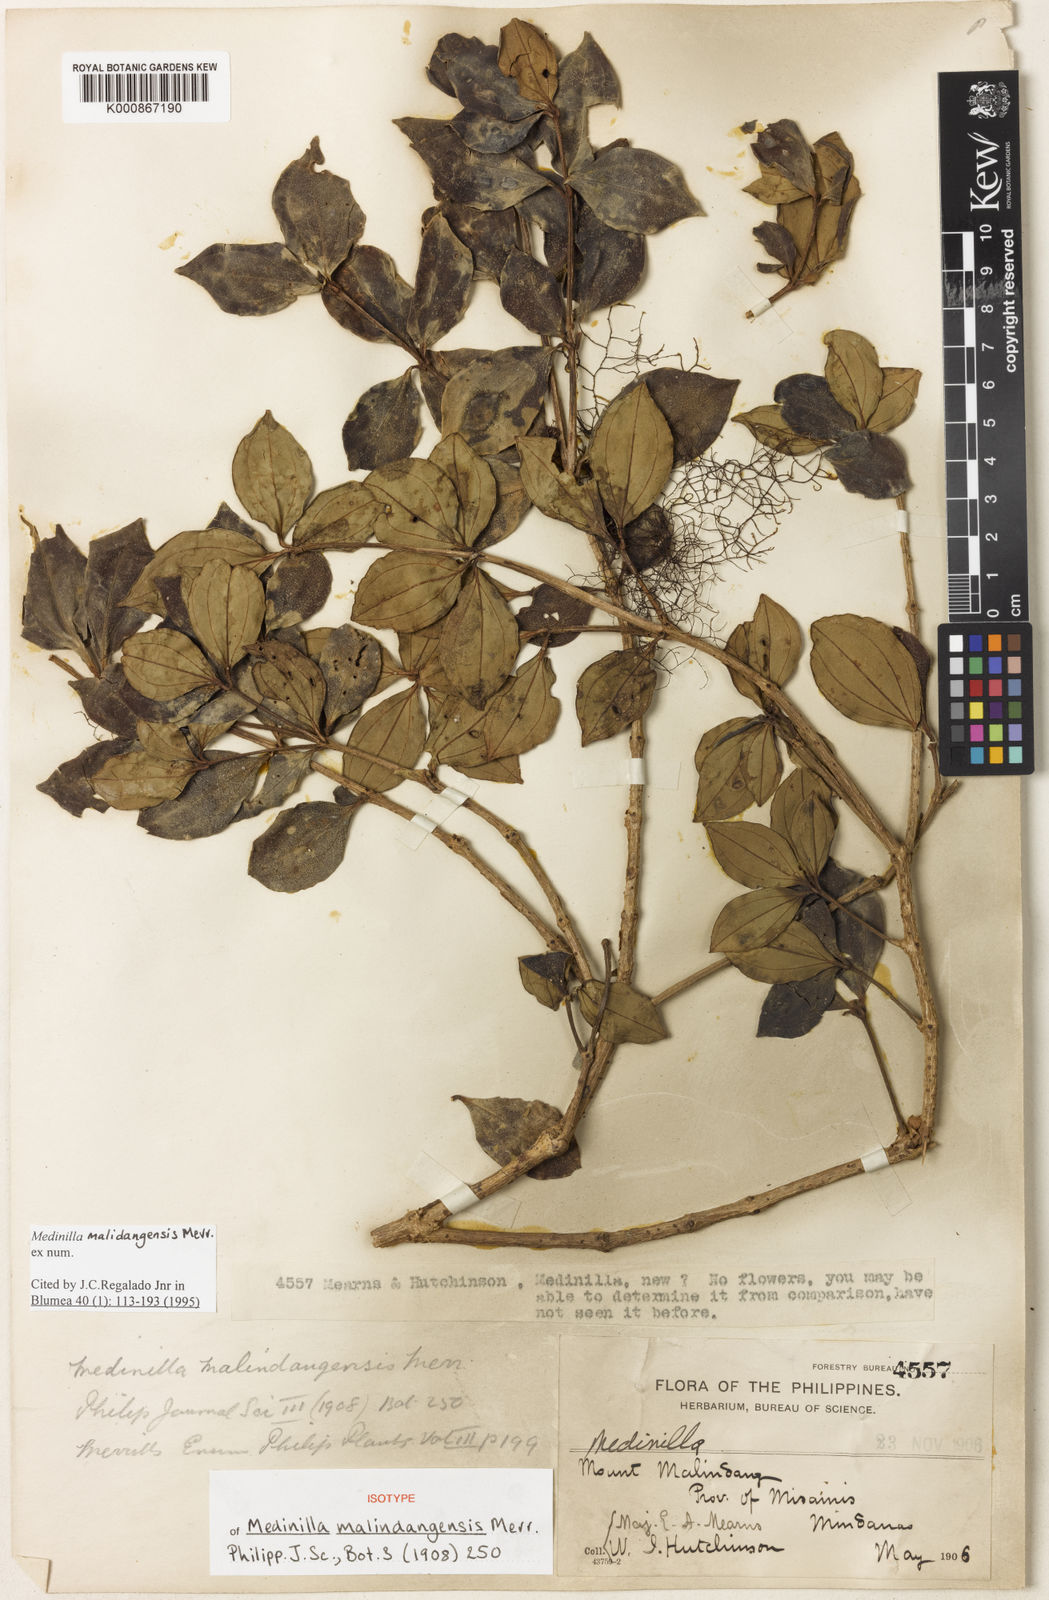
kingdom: Plantae
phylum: Tracheophyta
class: Magnoliopsida
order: Myrtales
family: Melastomataceae
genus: Medinilla
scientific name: Medinilla malindangensis
